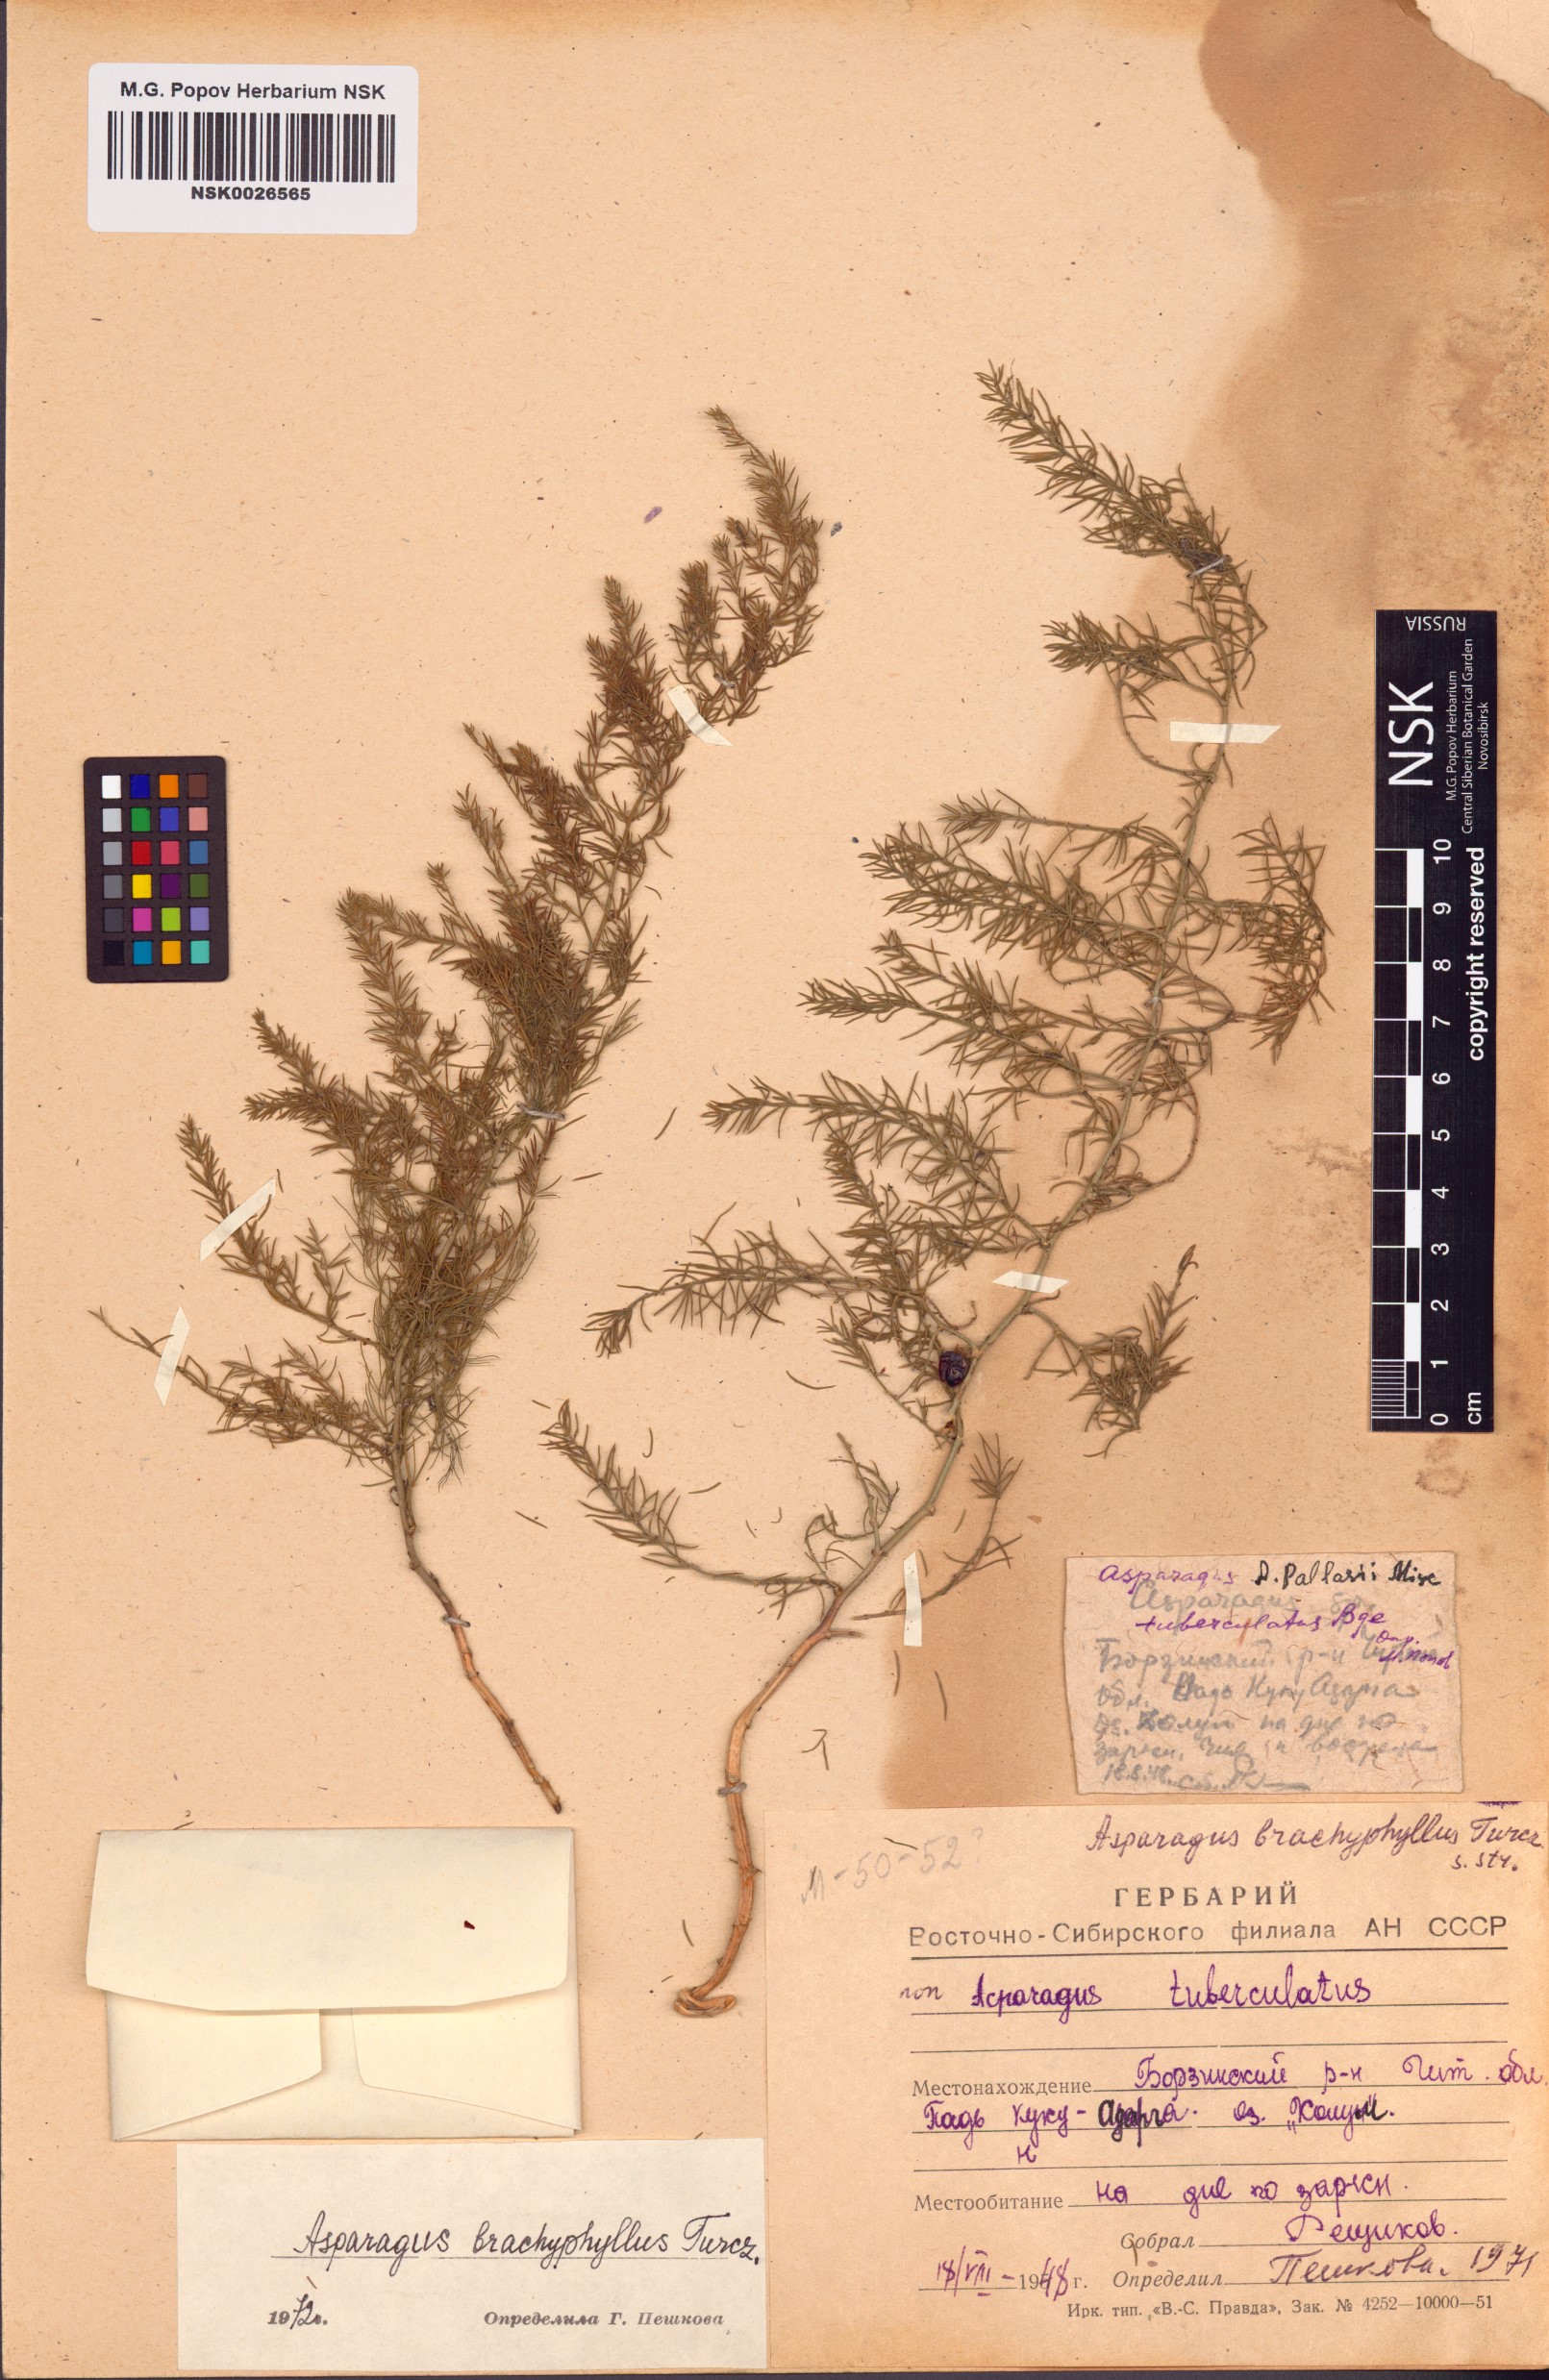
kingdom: Plantae
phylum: Tracheophyta
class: Liliopsida
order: Asparagales
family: Asparagaceae
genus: Asparagus
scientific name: Asparagus brachyphyllus
